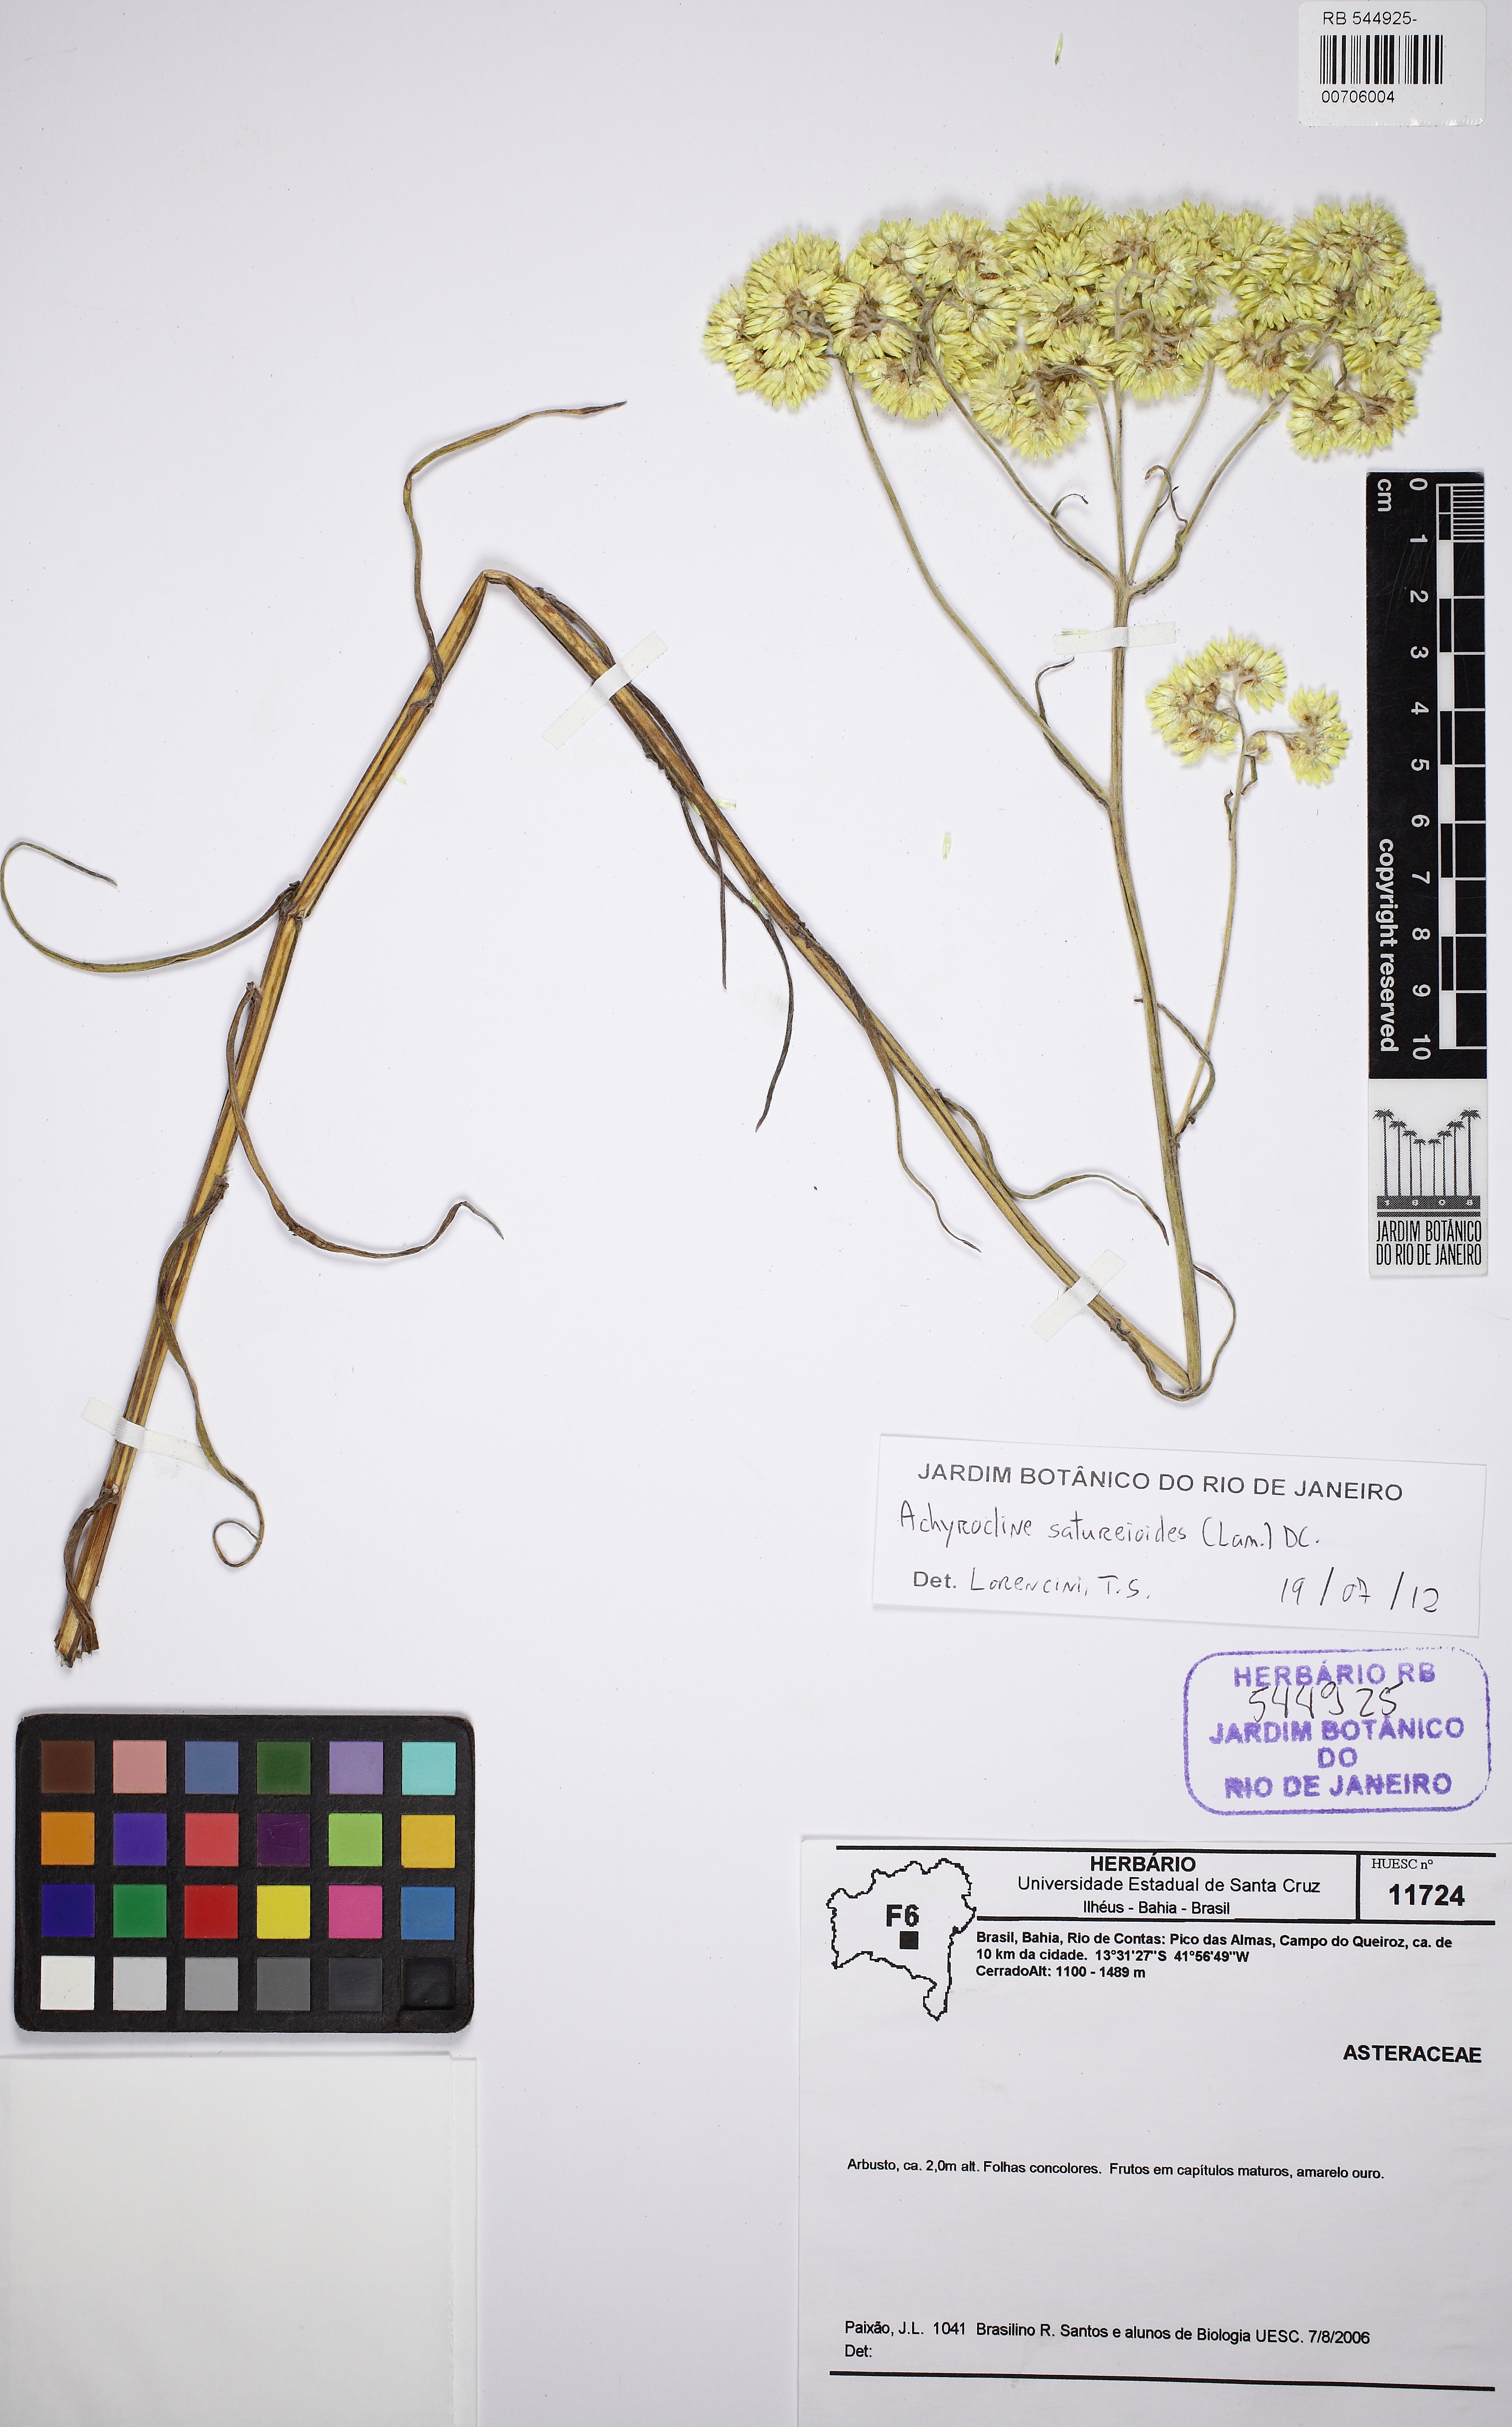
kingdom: Plantae
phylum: Tracheophyta
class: Magnoliopsida
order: Asterales
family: Asteraceae
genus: Achyrocline
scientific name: Achyrocline satureioides
